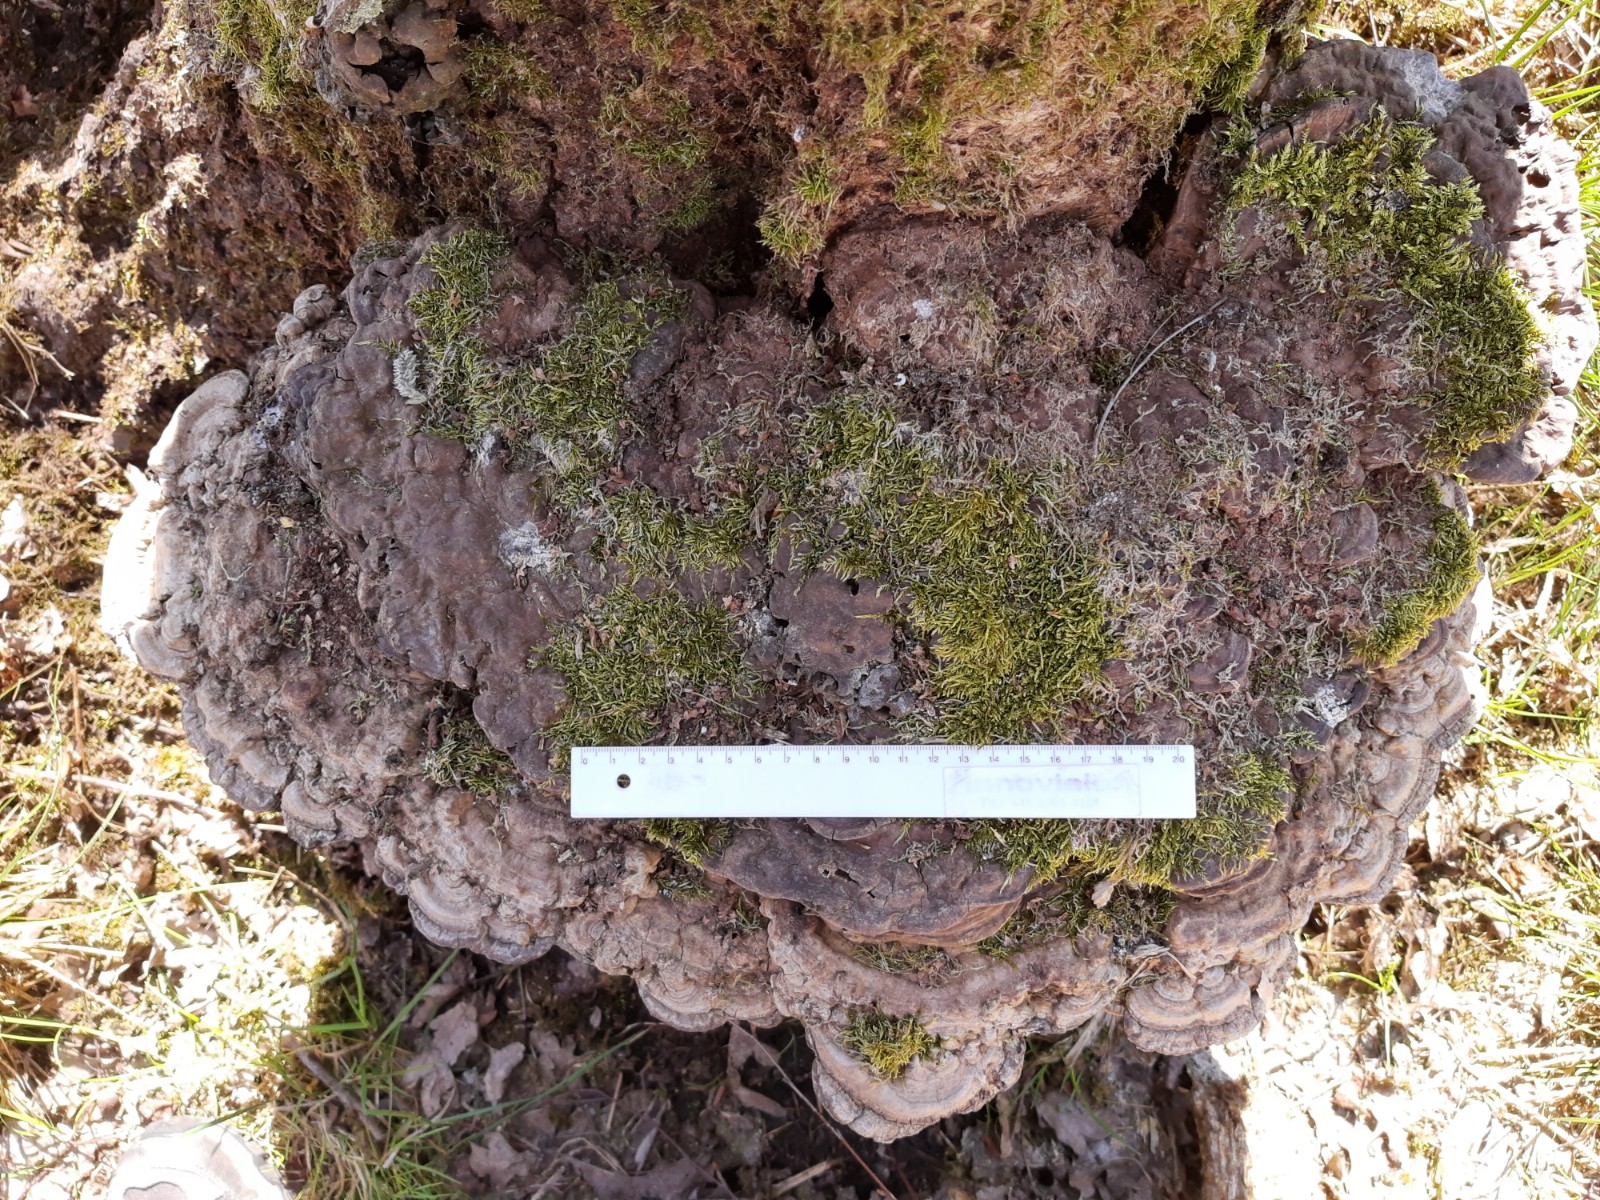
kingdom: Fungi
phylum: Basidiomycota
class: Agaricomycetes
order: Polyporales
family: Polyporaceae
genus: Ganoderma
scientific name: Ganoderma applanatum
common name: flad lakporesvamp
